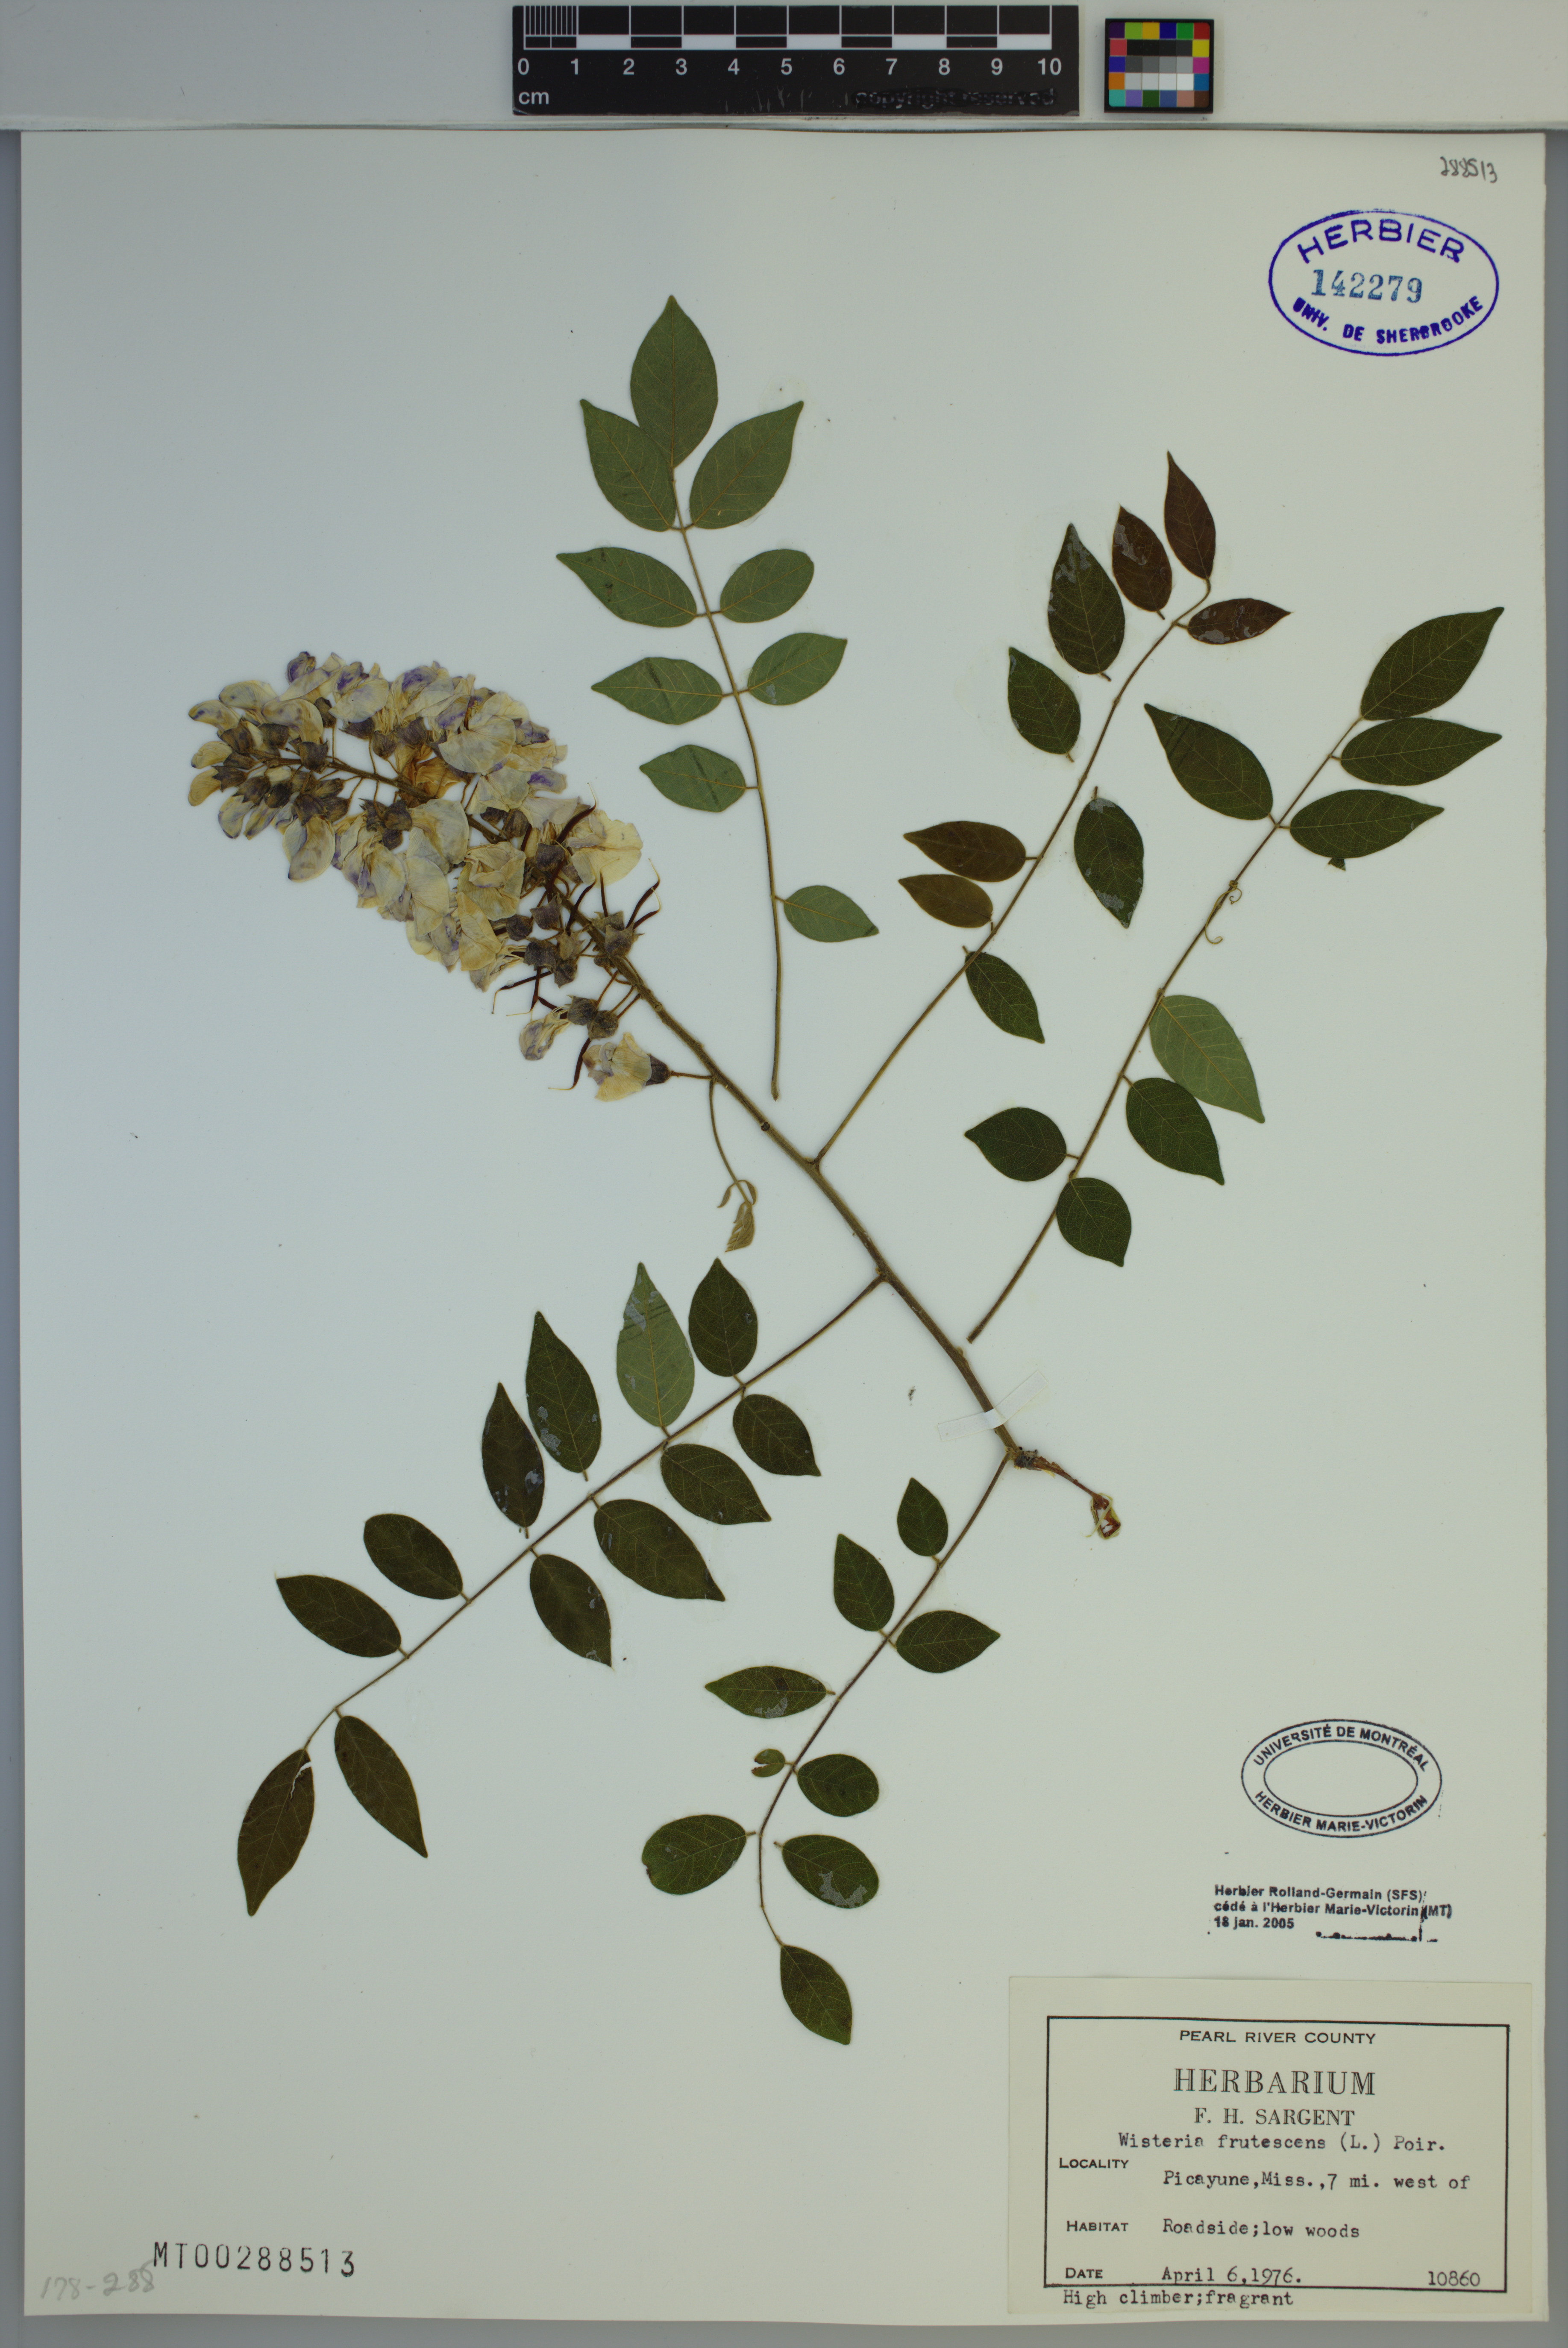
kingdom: Plantae
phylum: Tracheophyta
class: Magnoliopsida
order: Fabales
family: Fabaceae
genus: Wisteria
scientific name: Wisteria frutescens
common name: American wisteria
